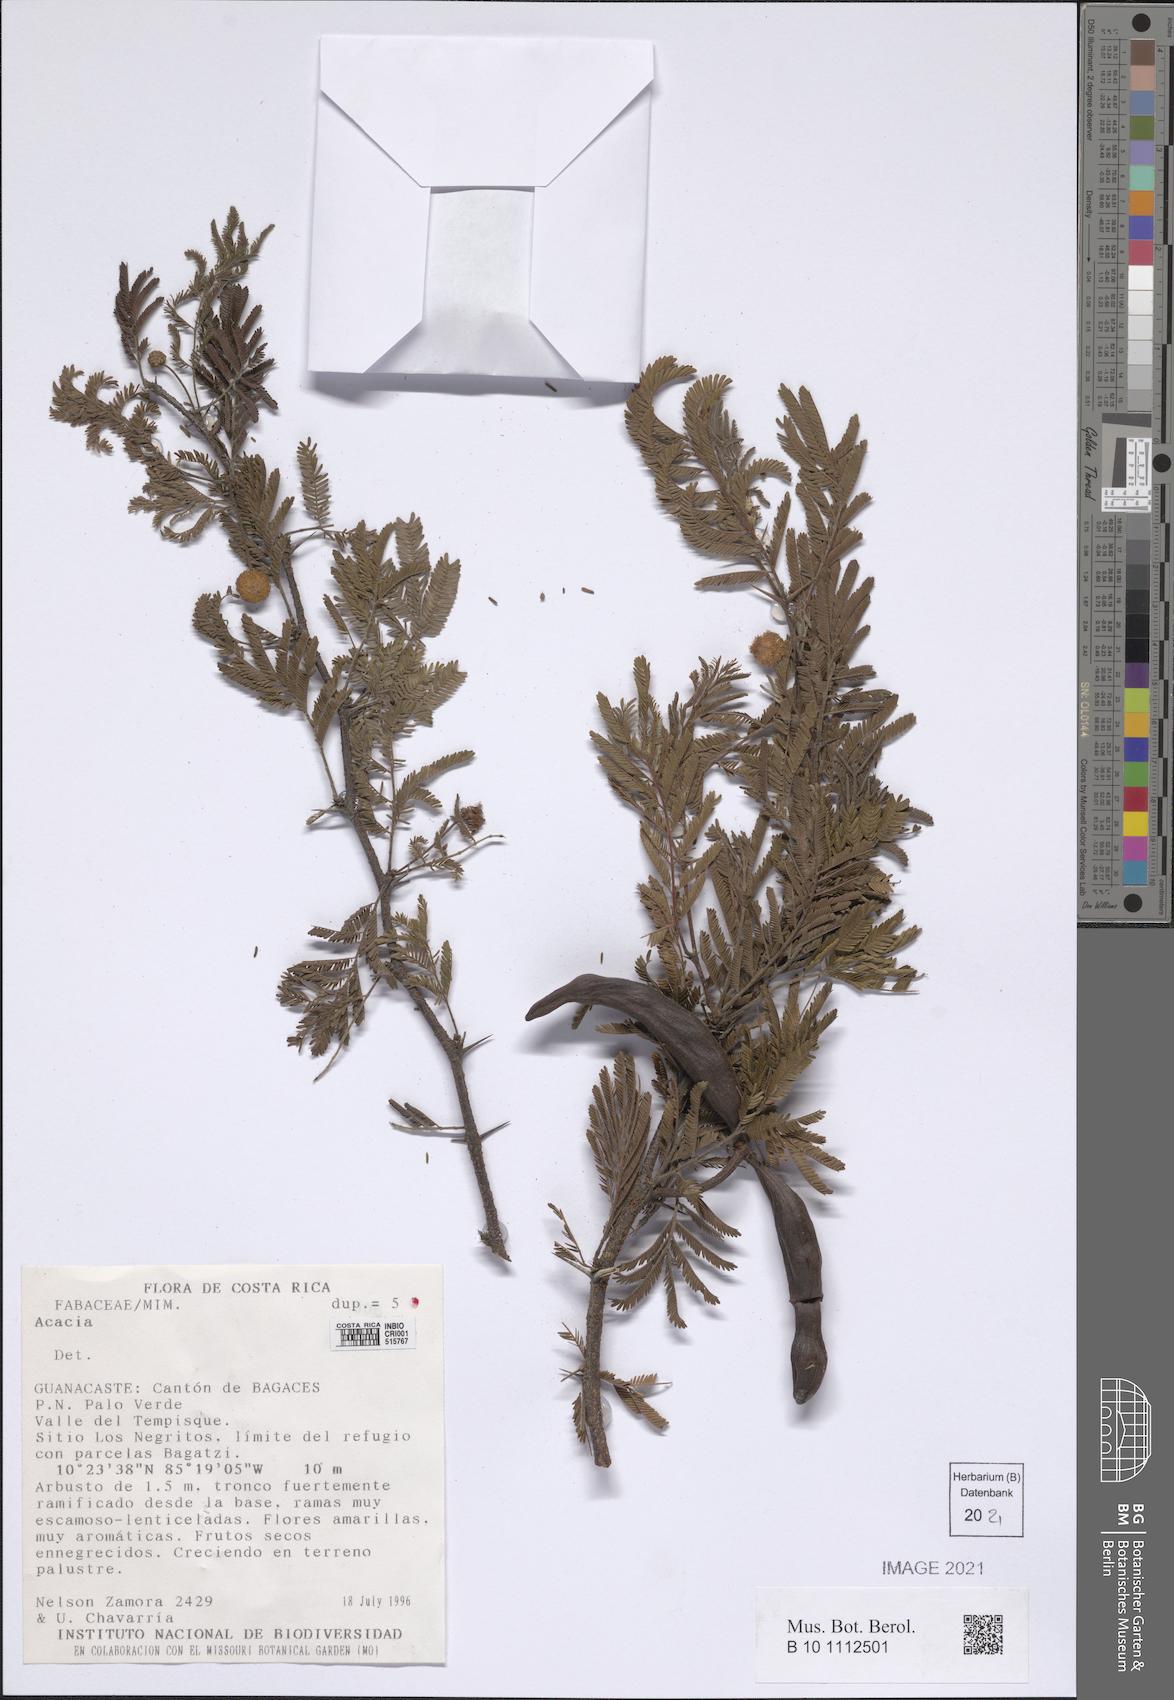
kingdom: Plantae
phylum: Tracheophyta
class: Magnoliopsida
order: Fabales
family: Fabaceae
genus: Acacia
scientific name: Acacia
